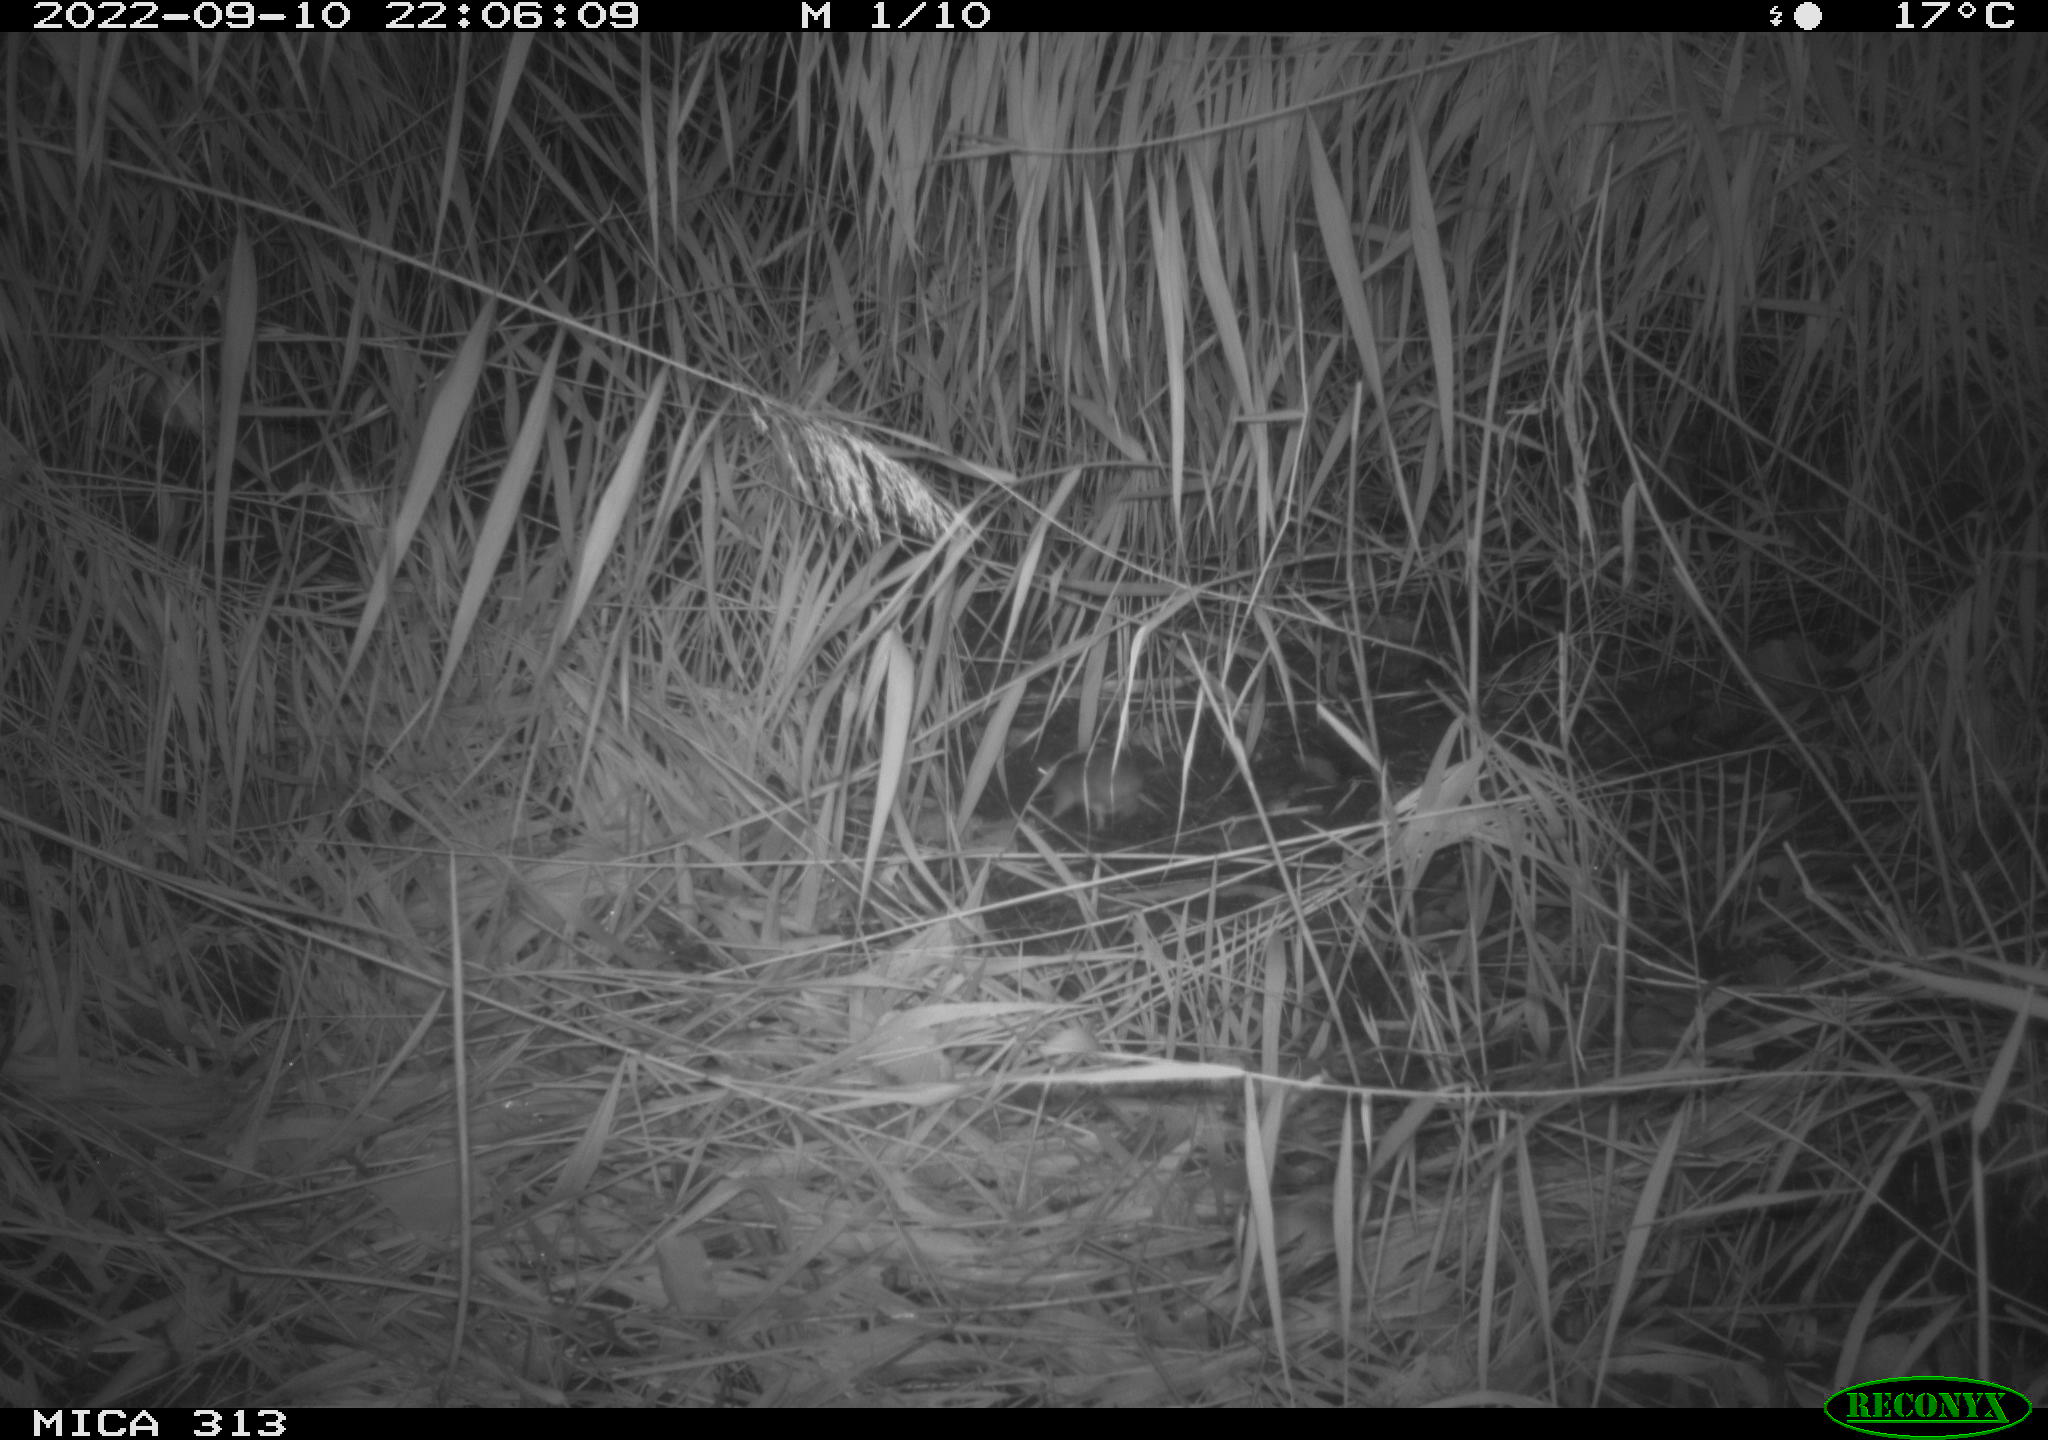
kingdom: Animalia
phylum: Chordata
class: Mammalia
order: Rodentia
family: Muridae
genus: Rattus
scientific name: Rattus norvegicus
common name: Brown rat
